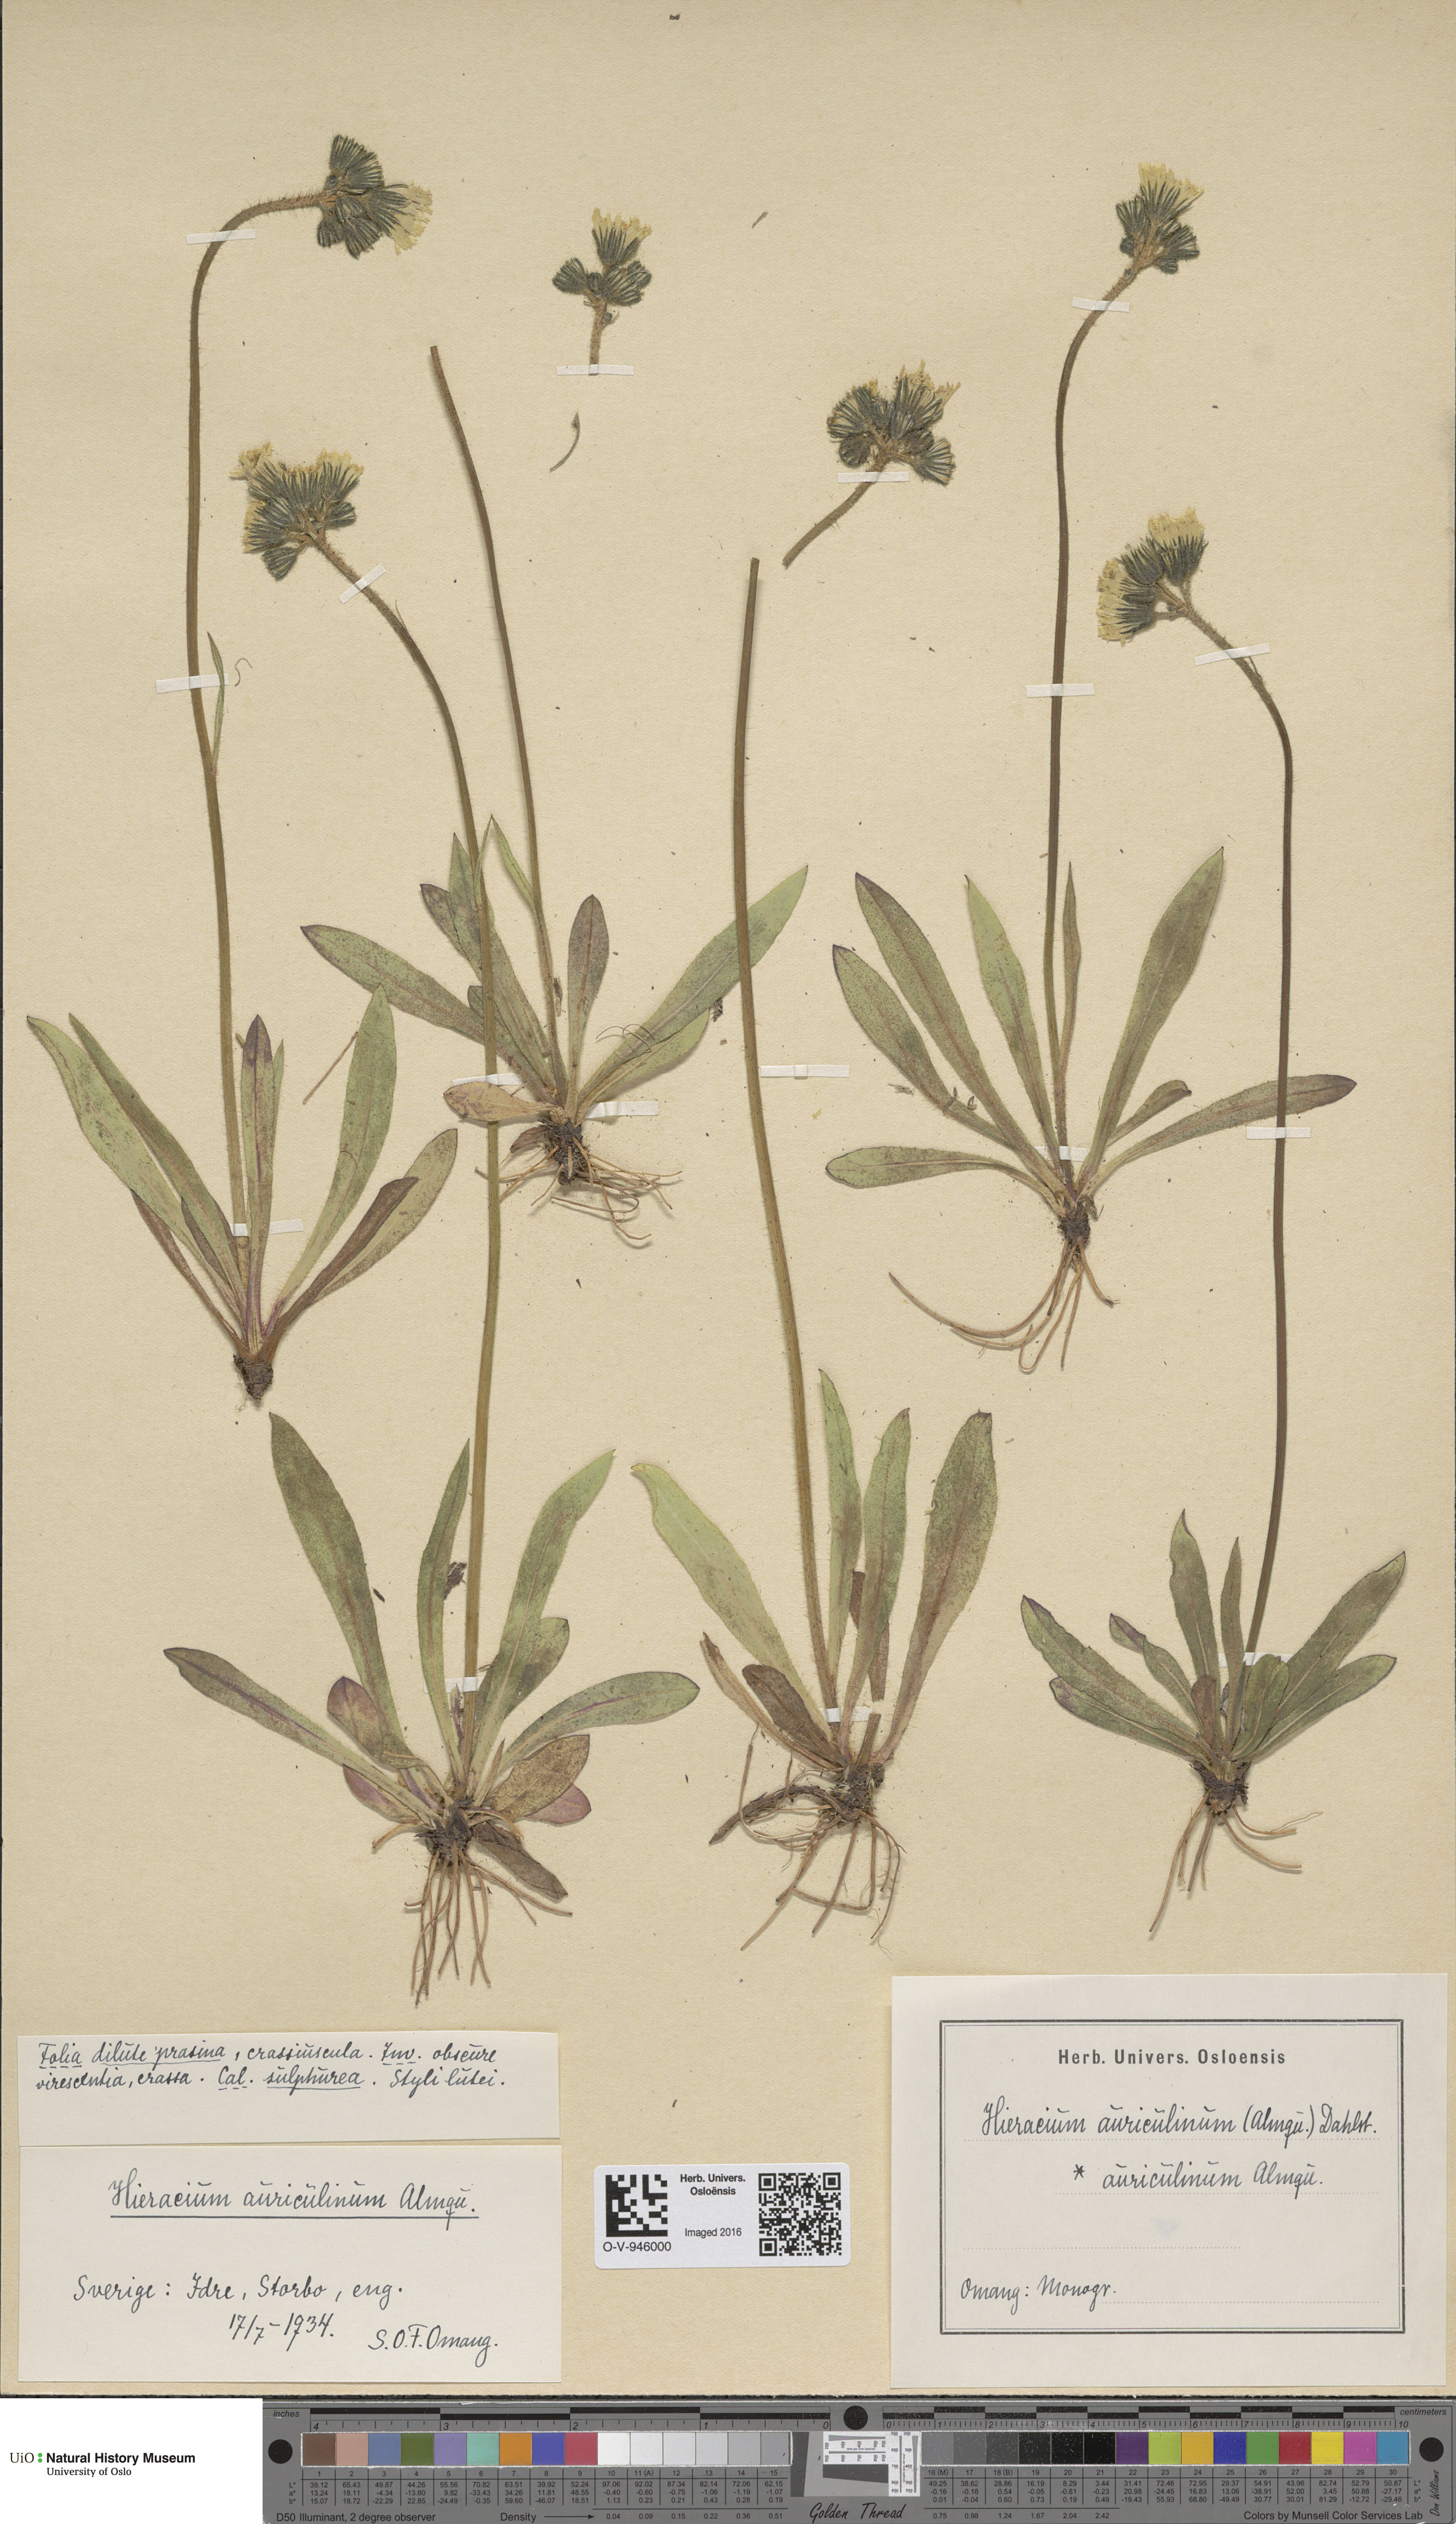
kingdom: Plantae
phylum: Tracheophyta
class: Magnoliopsida
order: Asterales
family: Asteraceae
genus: Pilosella
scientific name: Pilosella dubia
